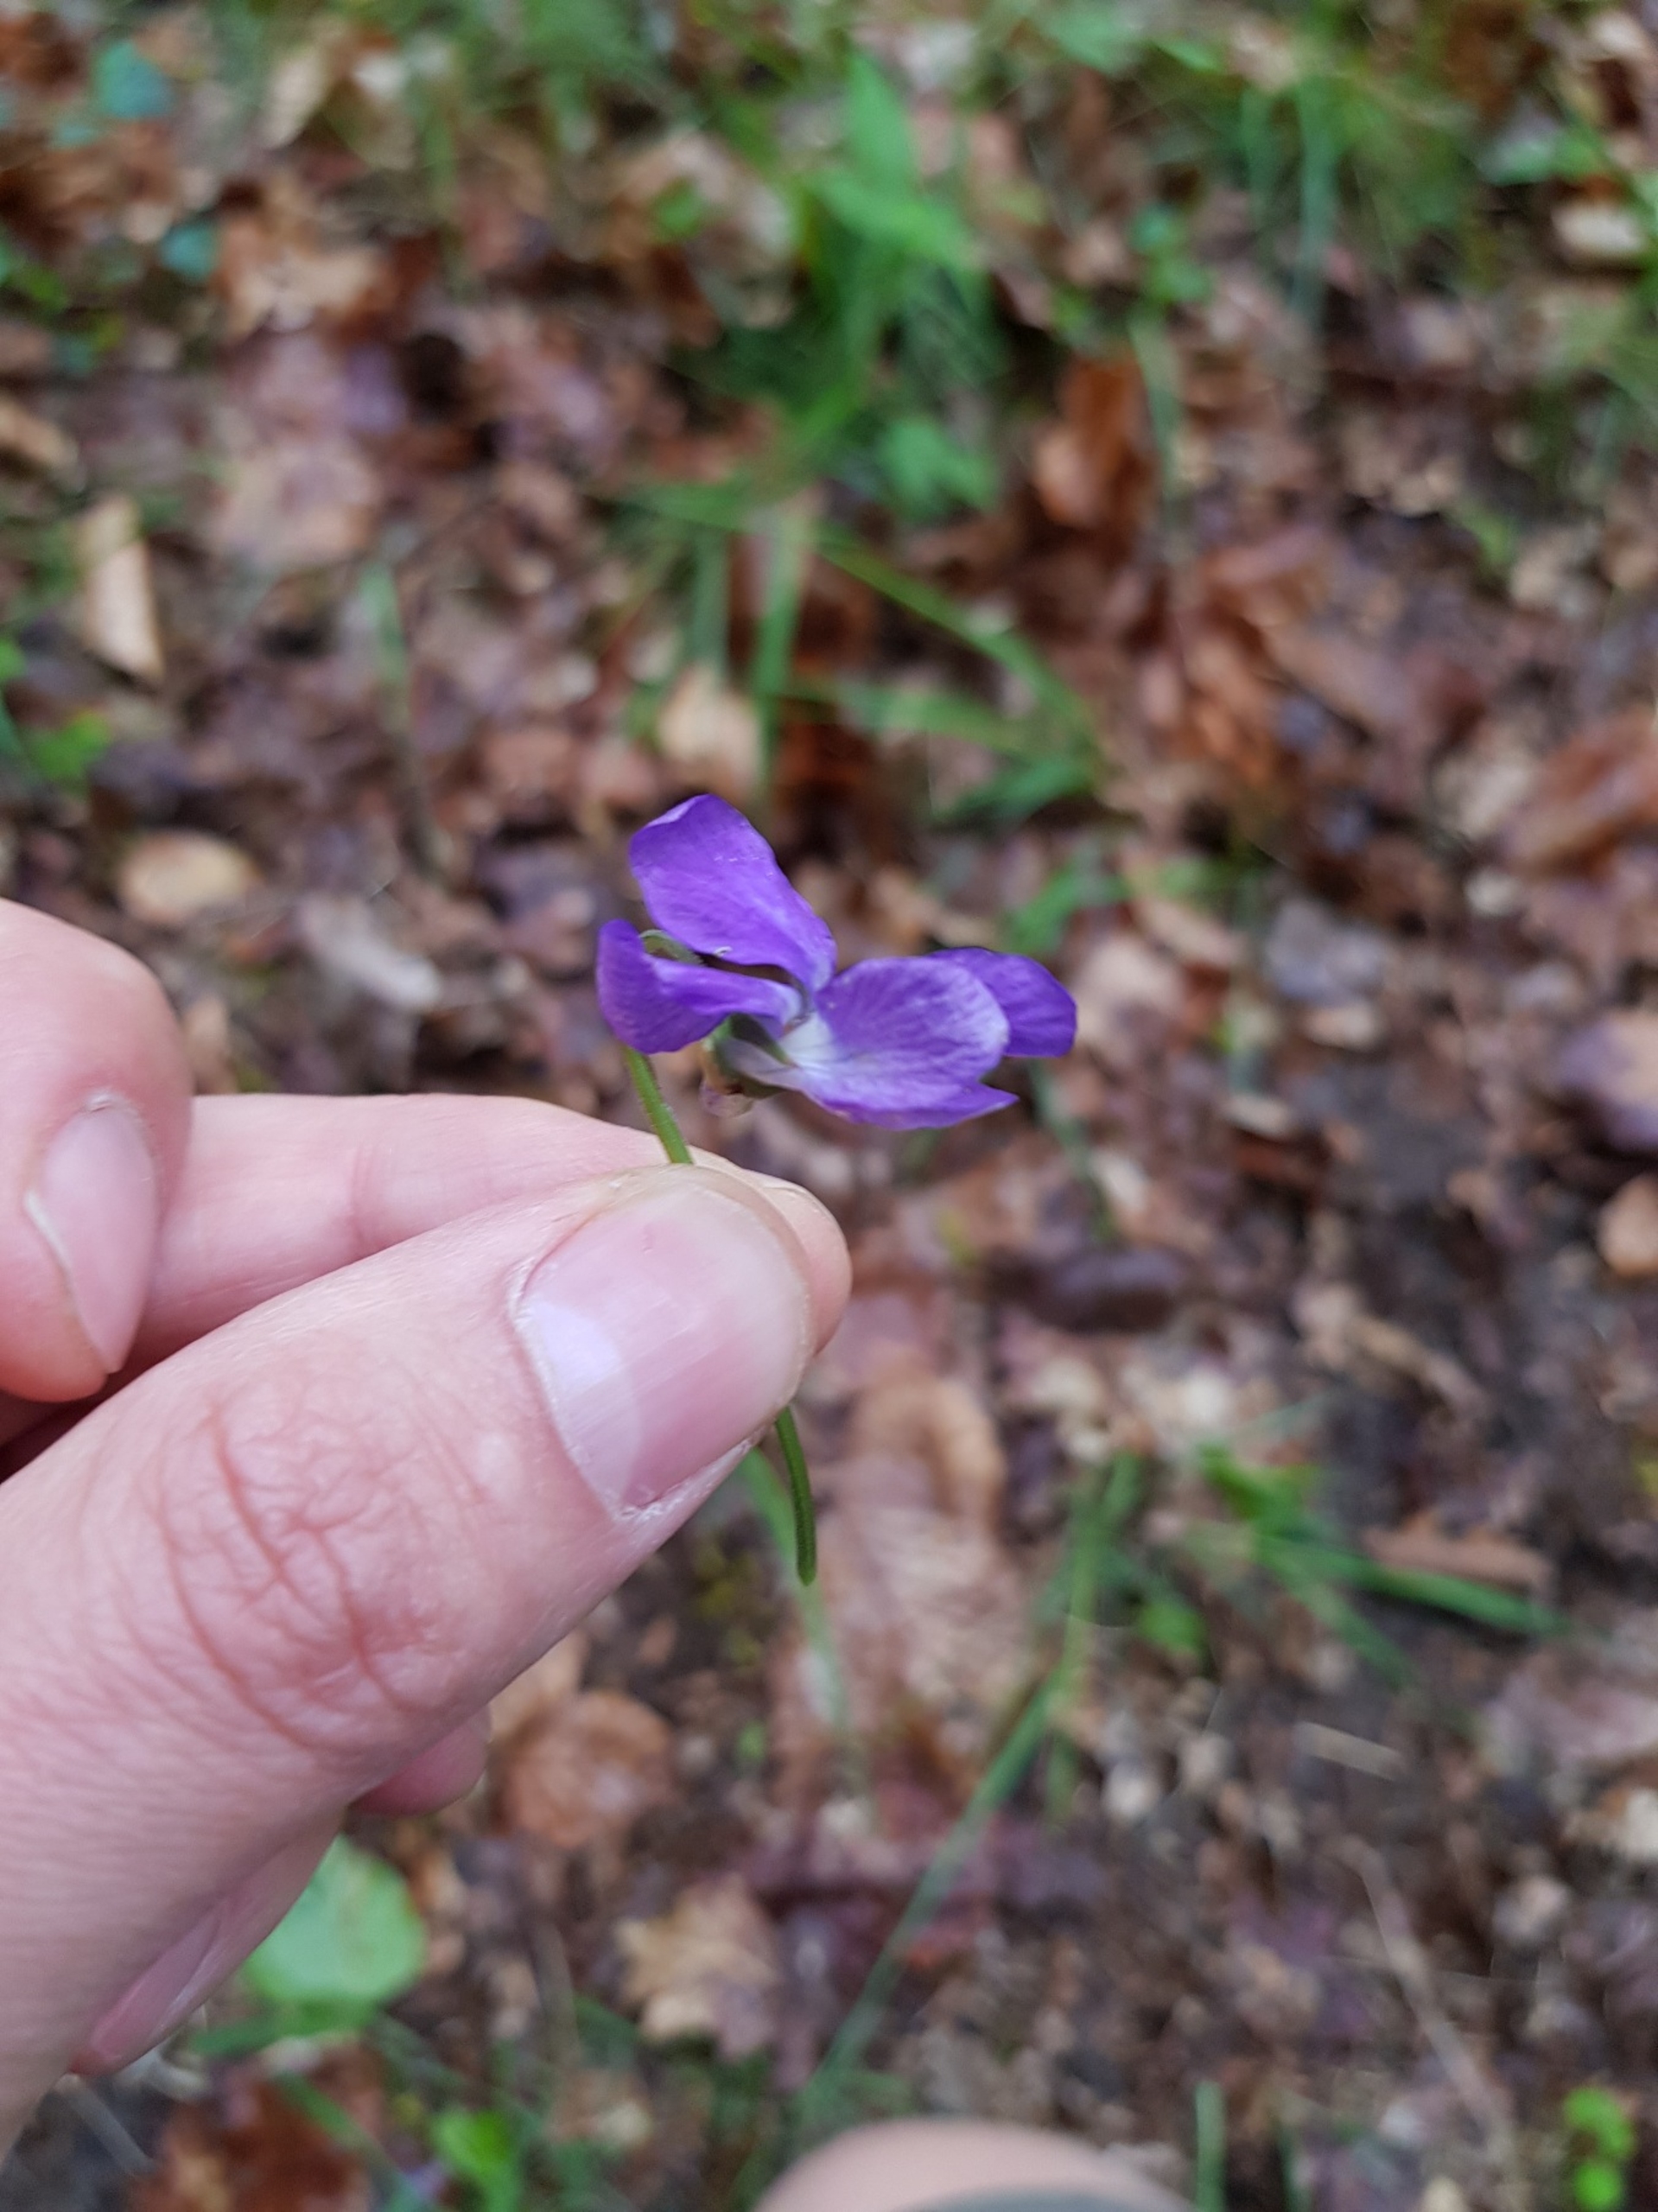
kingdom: Plantae
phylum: Tracheophyta
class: Magnoliopsida
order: Malpighiales
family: Violaceae
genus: Viola
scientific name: Viola reichenbachiana
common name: Skov-viol
